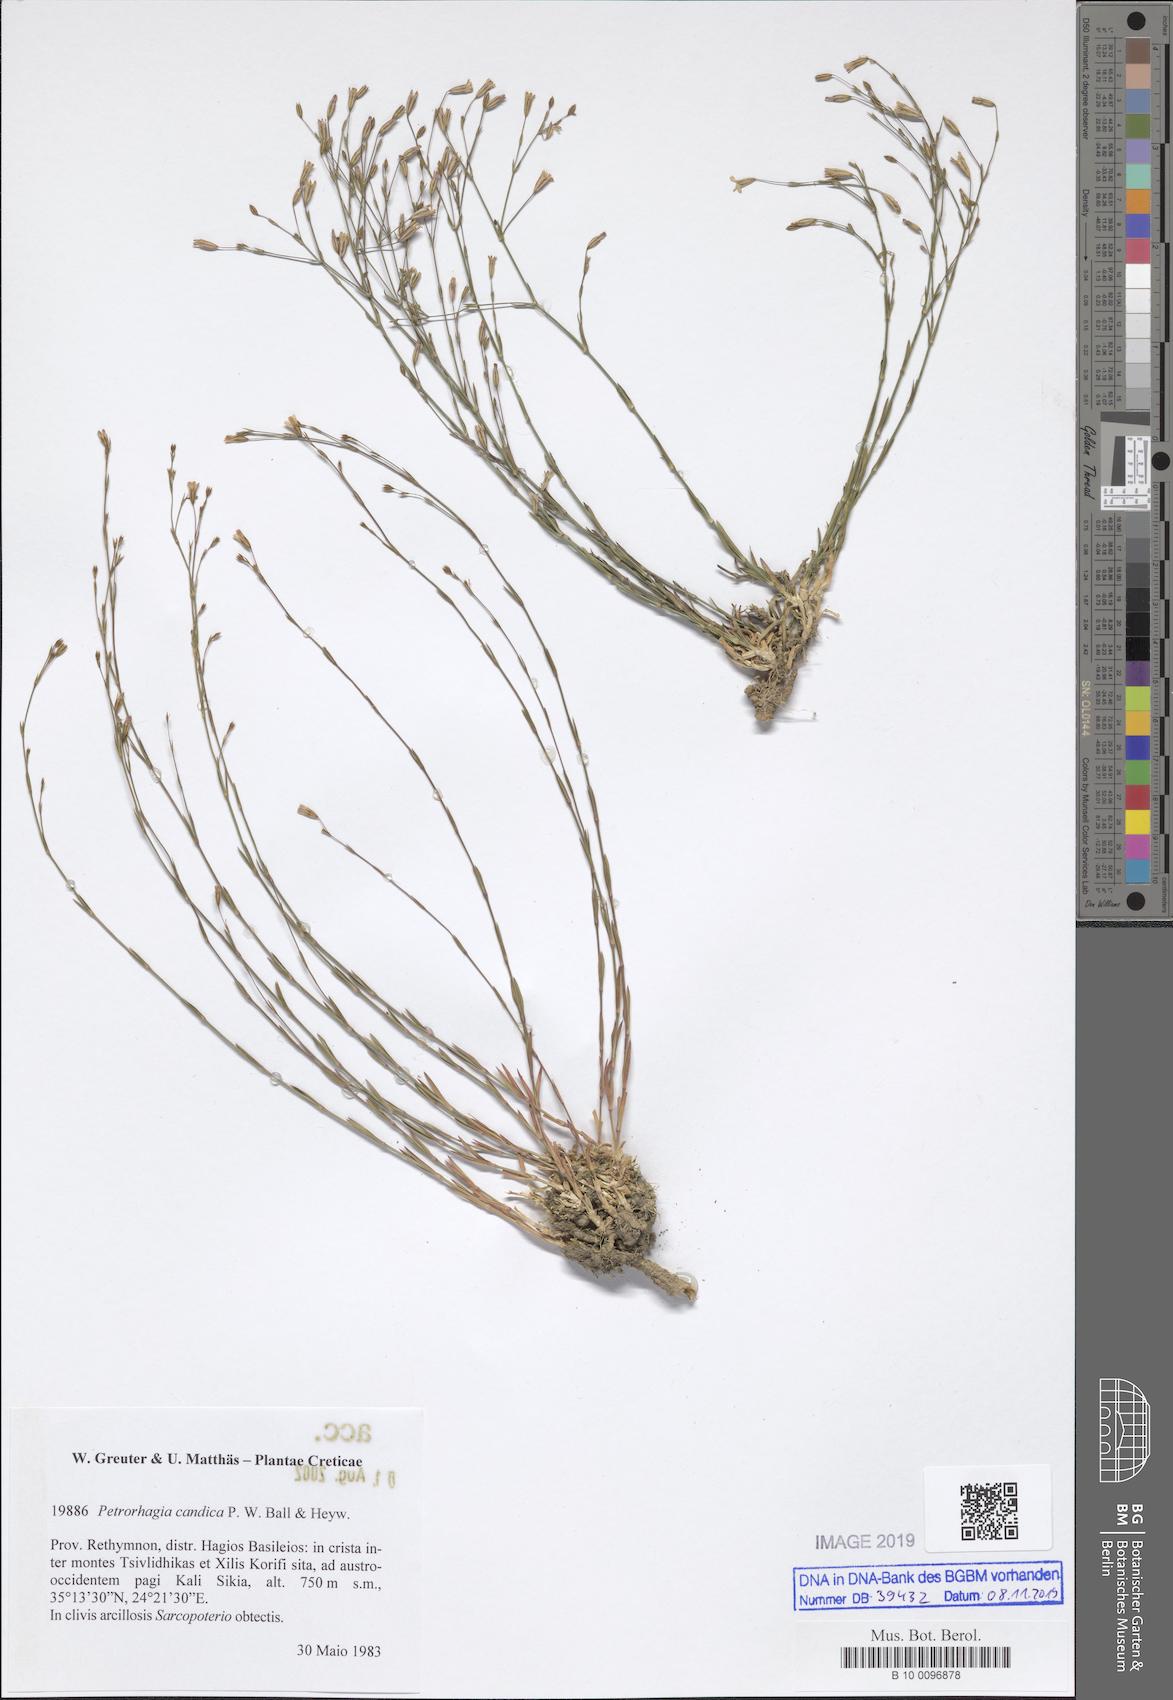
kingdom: Plantae
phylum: Tracheophyta
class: Magnoliopsida
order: Caryophyllales
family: Caryophyllaceae
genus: Dianthus
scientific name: Dianthus candicus
